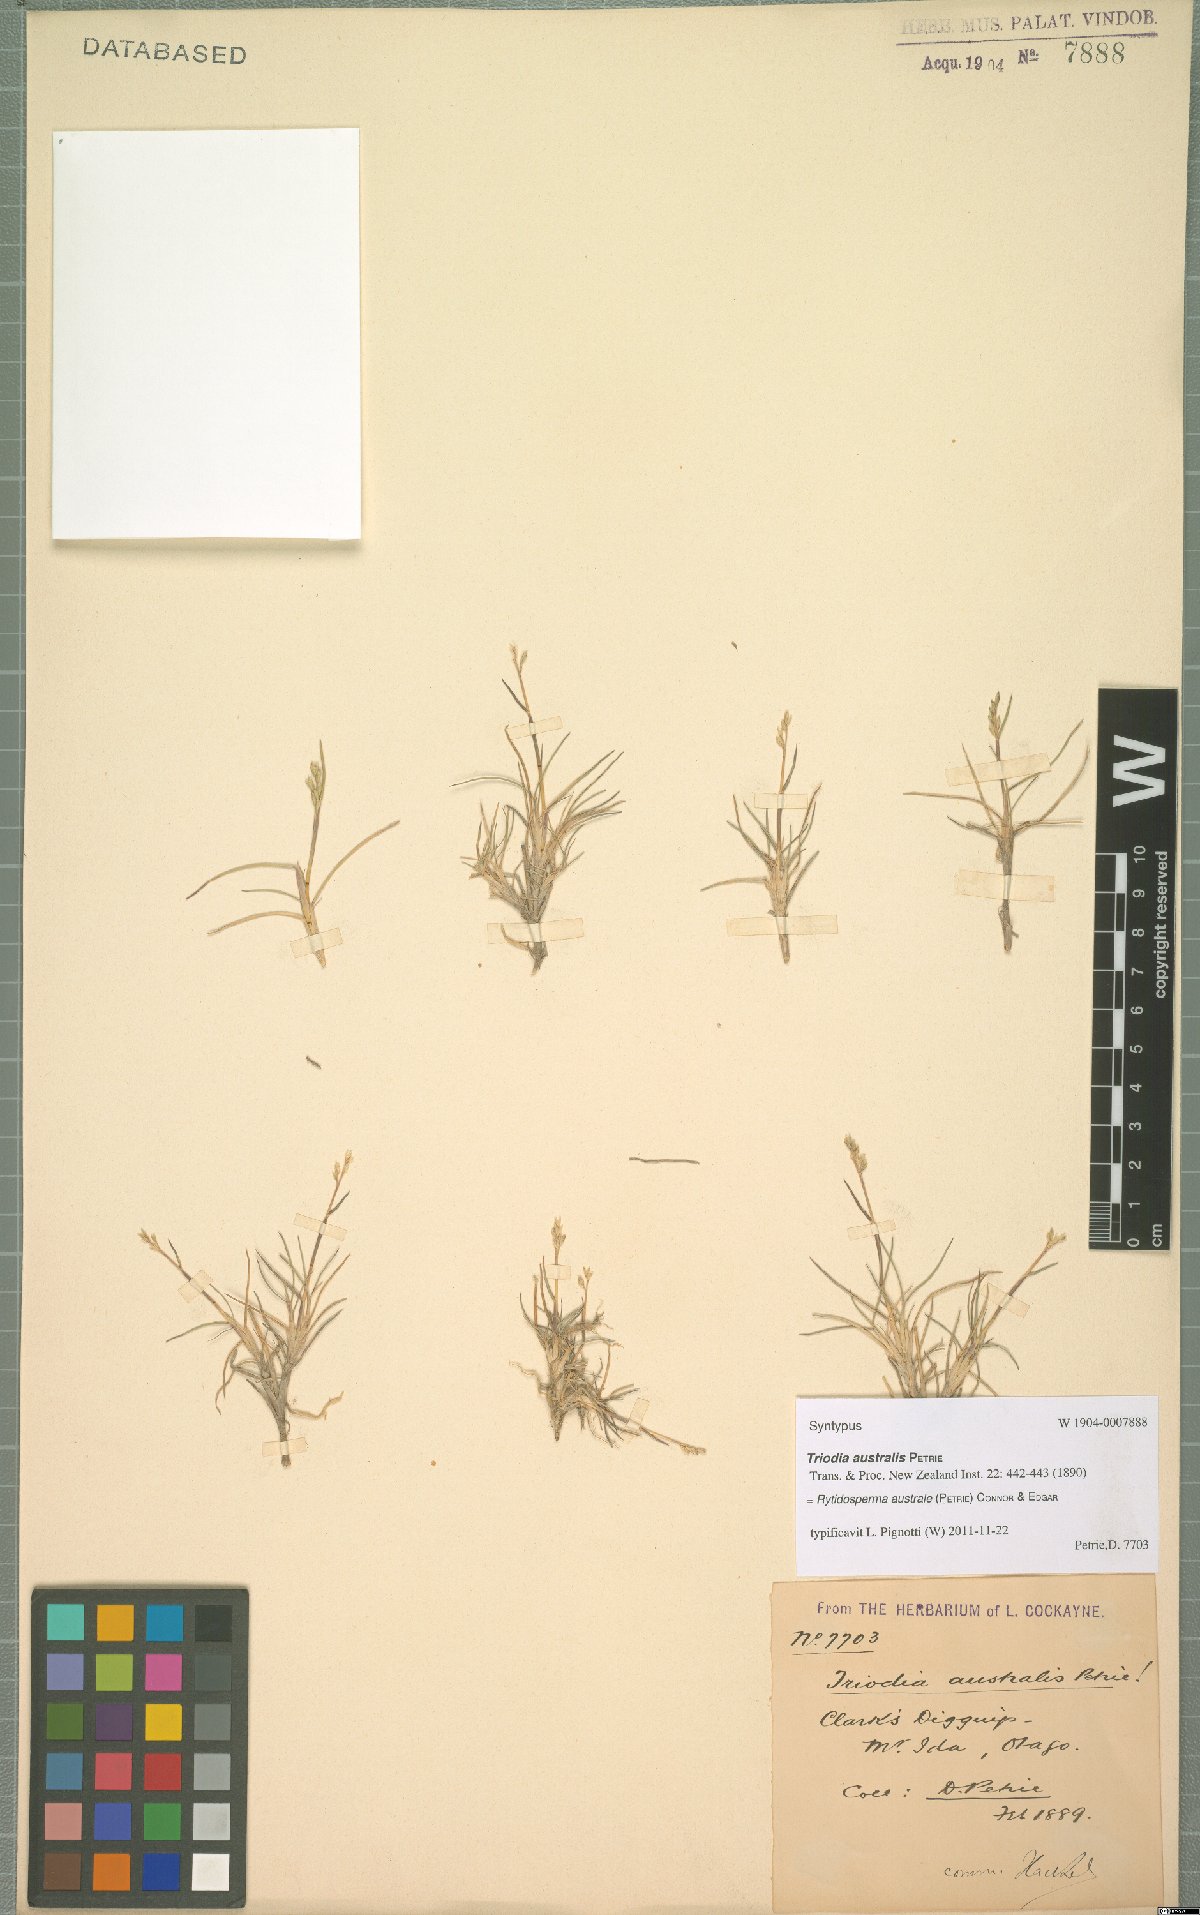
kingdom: Plantae
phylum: Tracheophyta
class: Liliopsida
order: Poales
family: Poaceae
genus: Rytidosperma
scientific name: Rytidosperma australe
